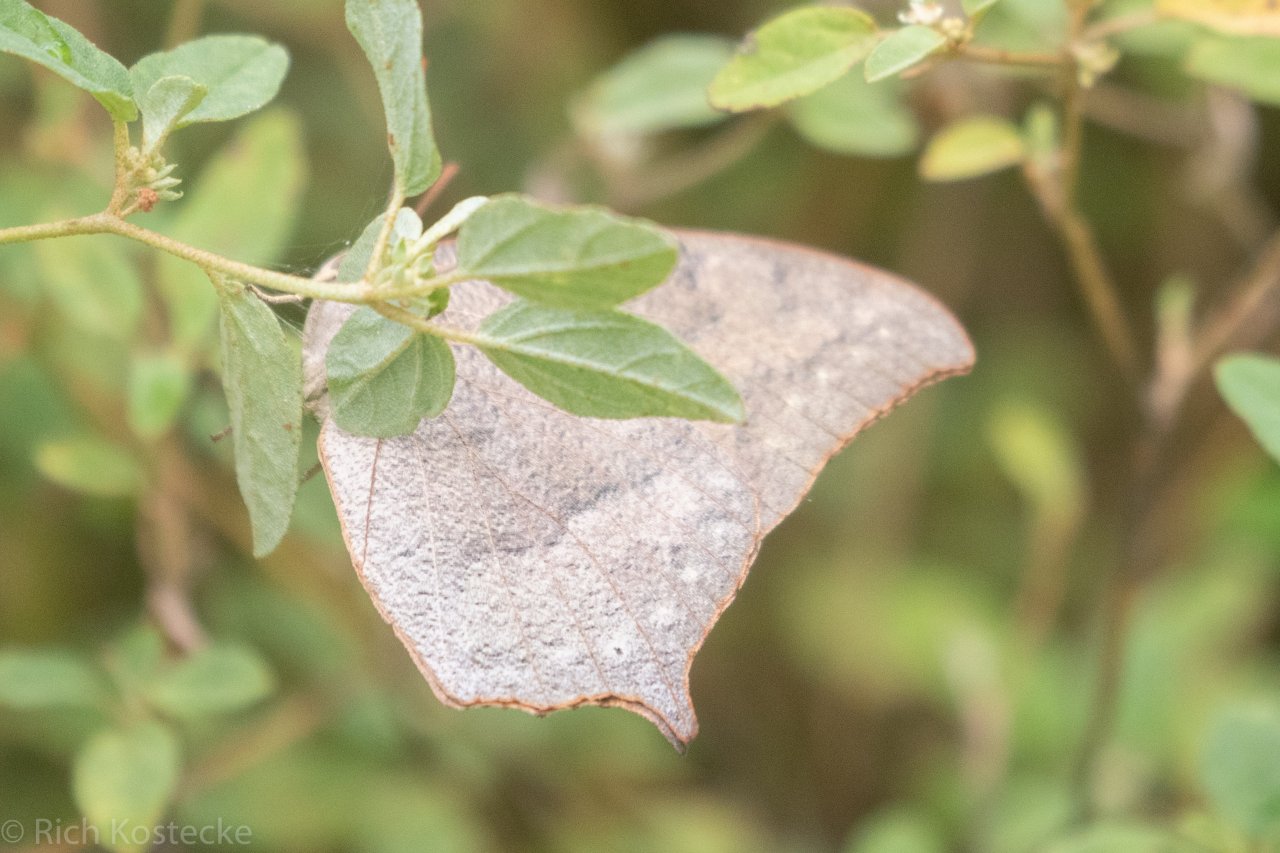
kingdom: Animalia
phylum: Arthropoda
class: Insecta
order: Lepidoptera
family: Nymphalidae
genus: Anaea
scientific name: Anaea andria
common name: Goatweed Leafwing
